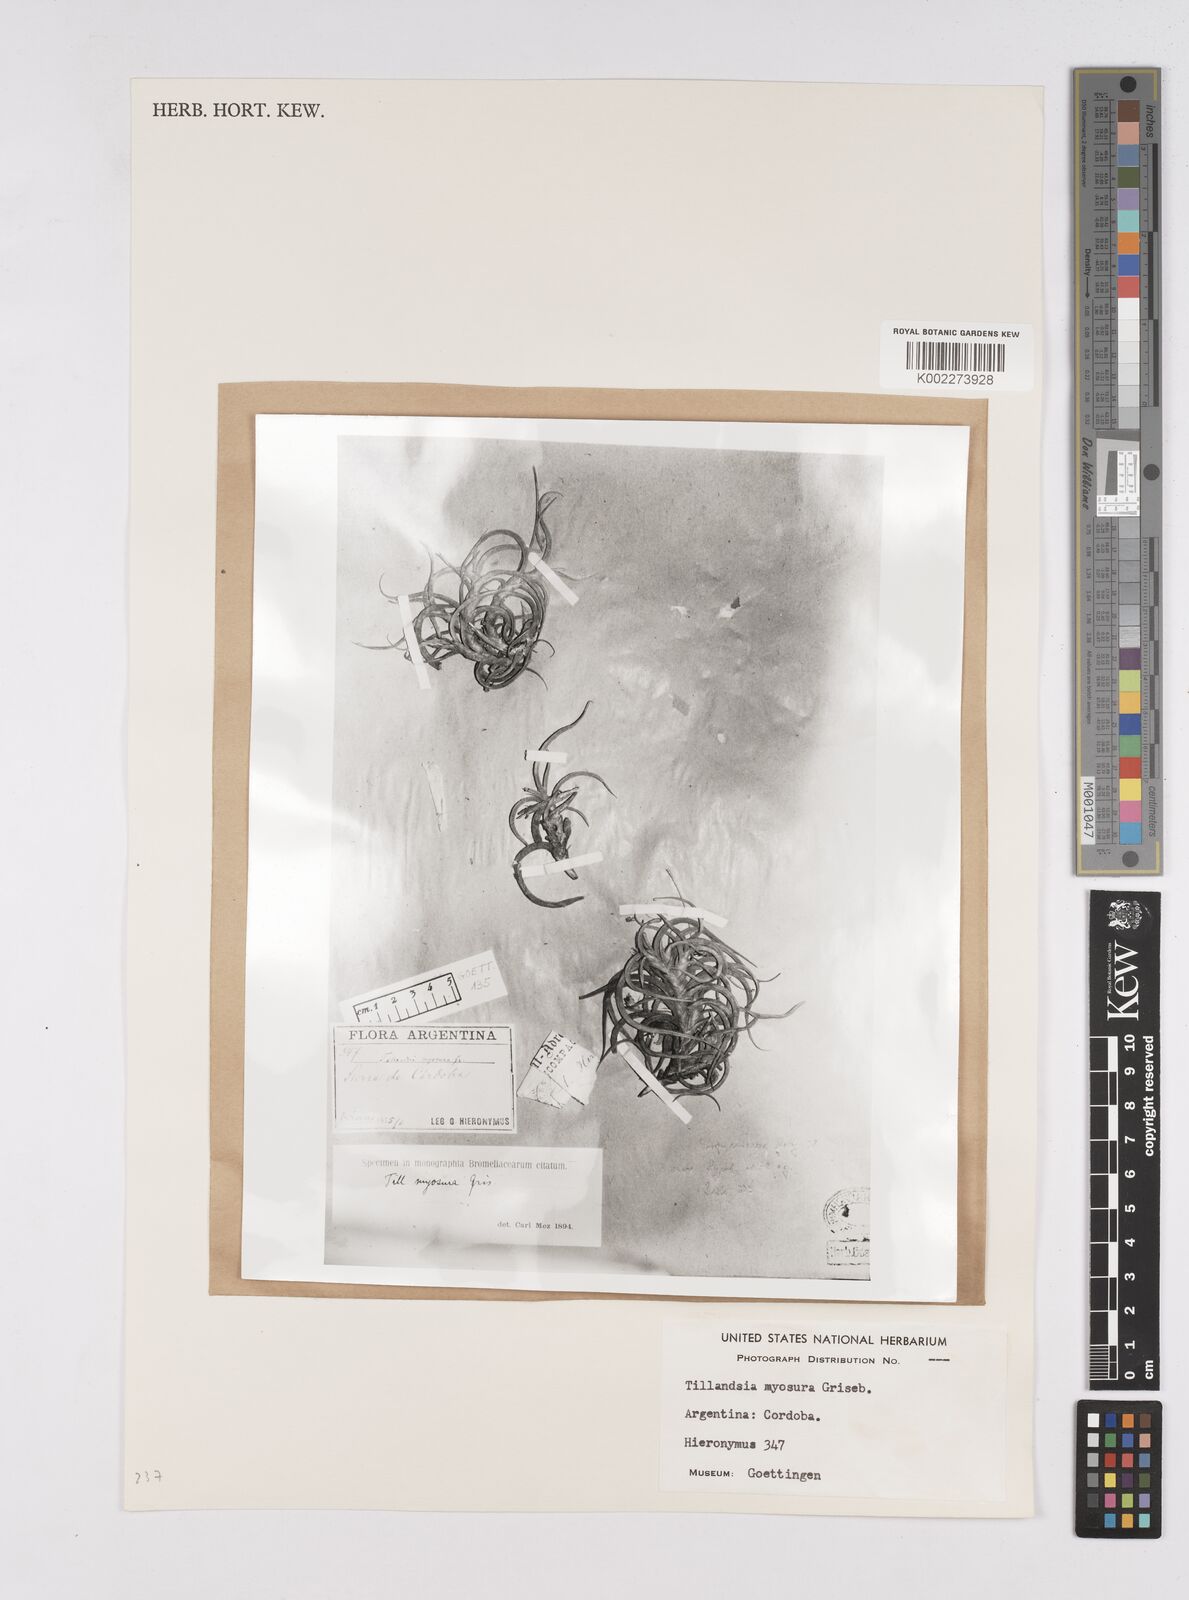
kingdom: Plantae
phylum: Tracheophyta
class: Liliopsida
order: Poales
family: Bromeliaceae
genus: Tillandsia
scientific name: Tillandsia myosura
